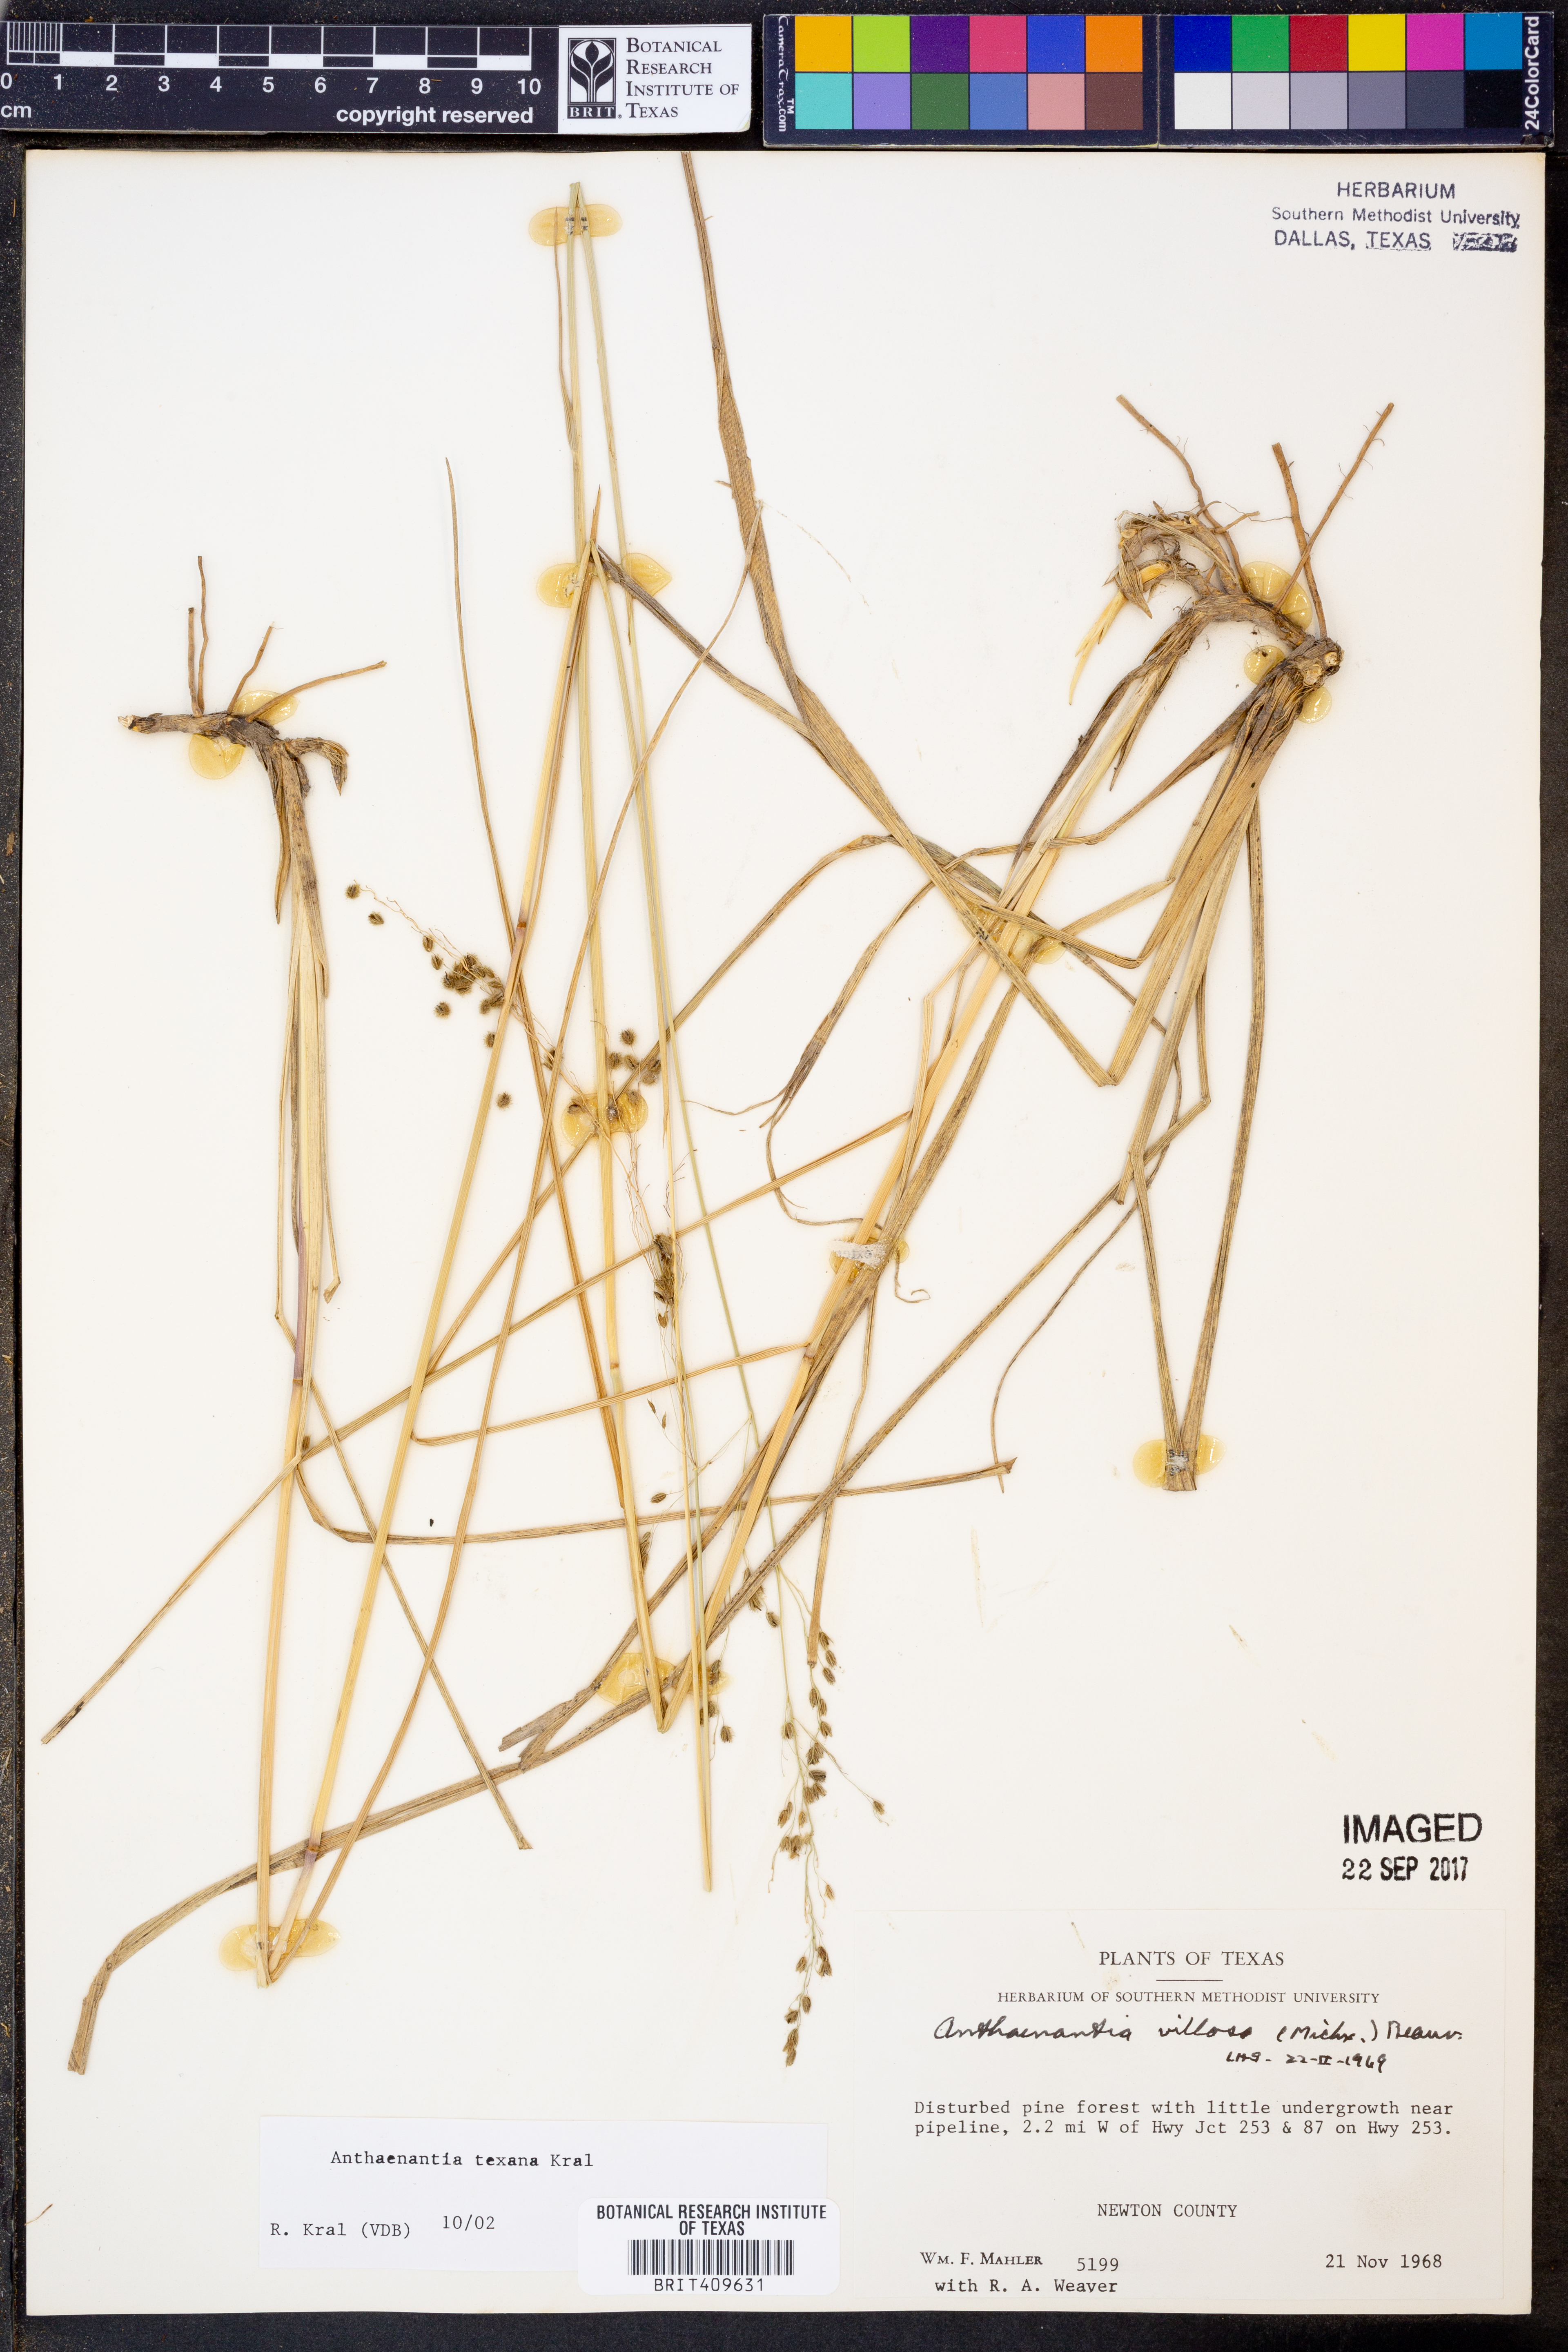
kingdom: Plantae
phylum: Tracheophyta
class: Liliopsida
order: Poales
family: Poaceae
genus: Anthaenantia
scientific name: Anthaenantia texana
